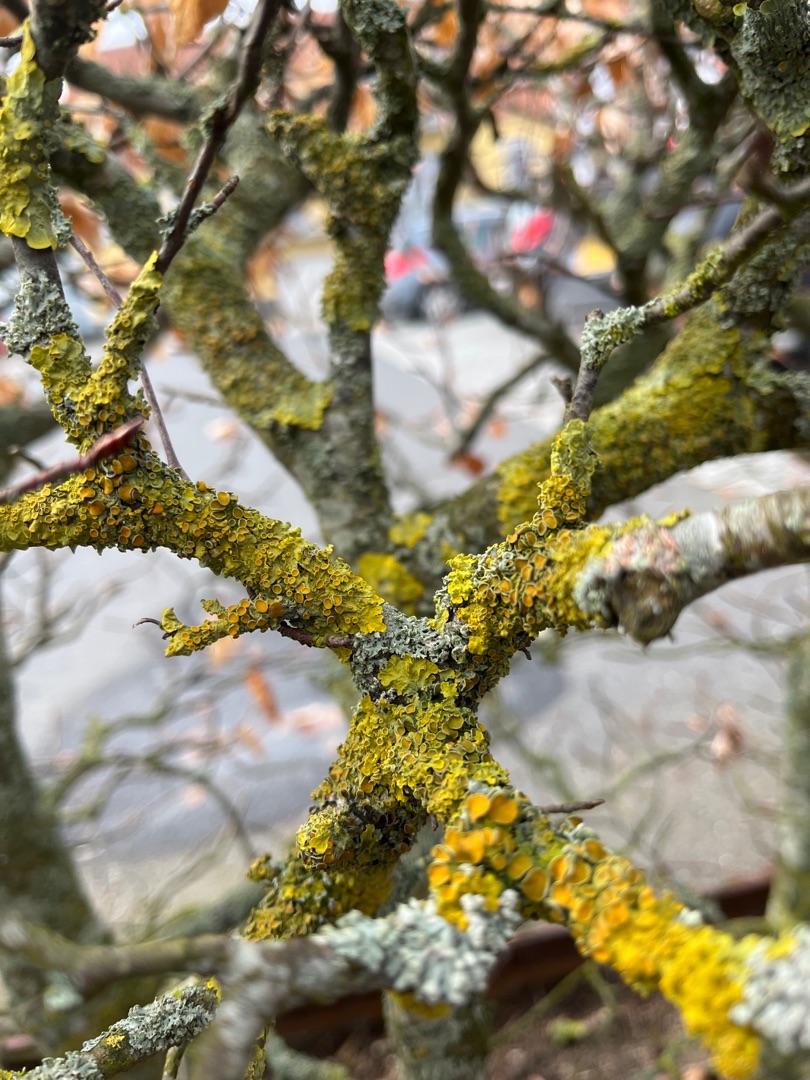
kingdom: Fungi
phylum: Ascomycota
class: Lecanoromycetes
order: Teloschistales
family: Teloschistaceae
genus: Xanthoria
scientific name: Xanthoria parietina
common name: Almindelig væggelav
